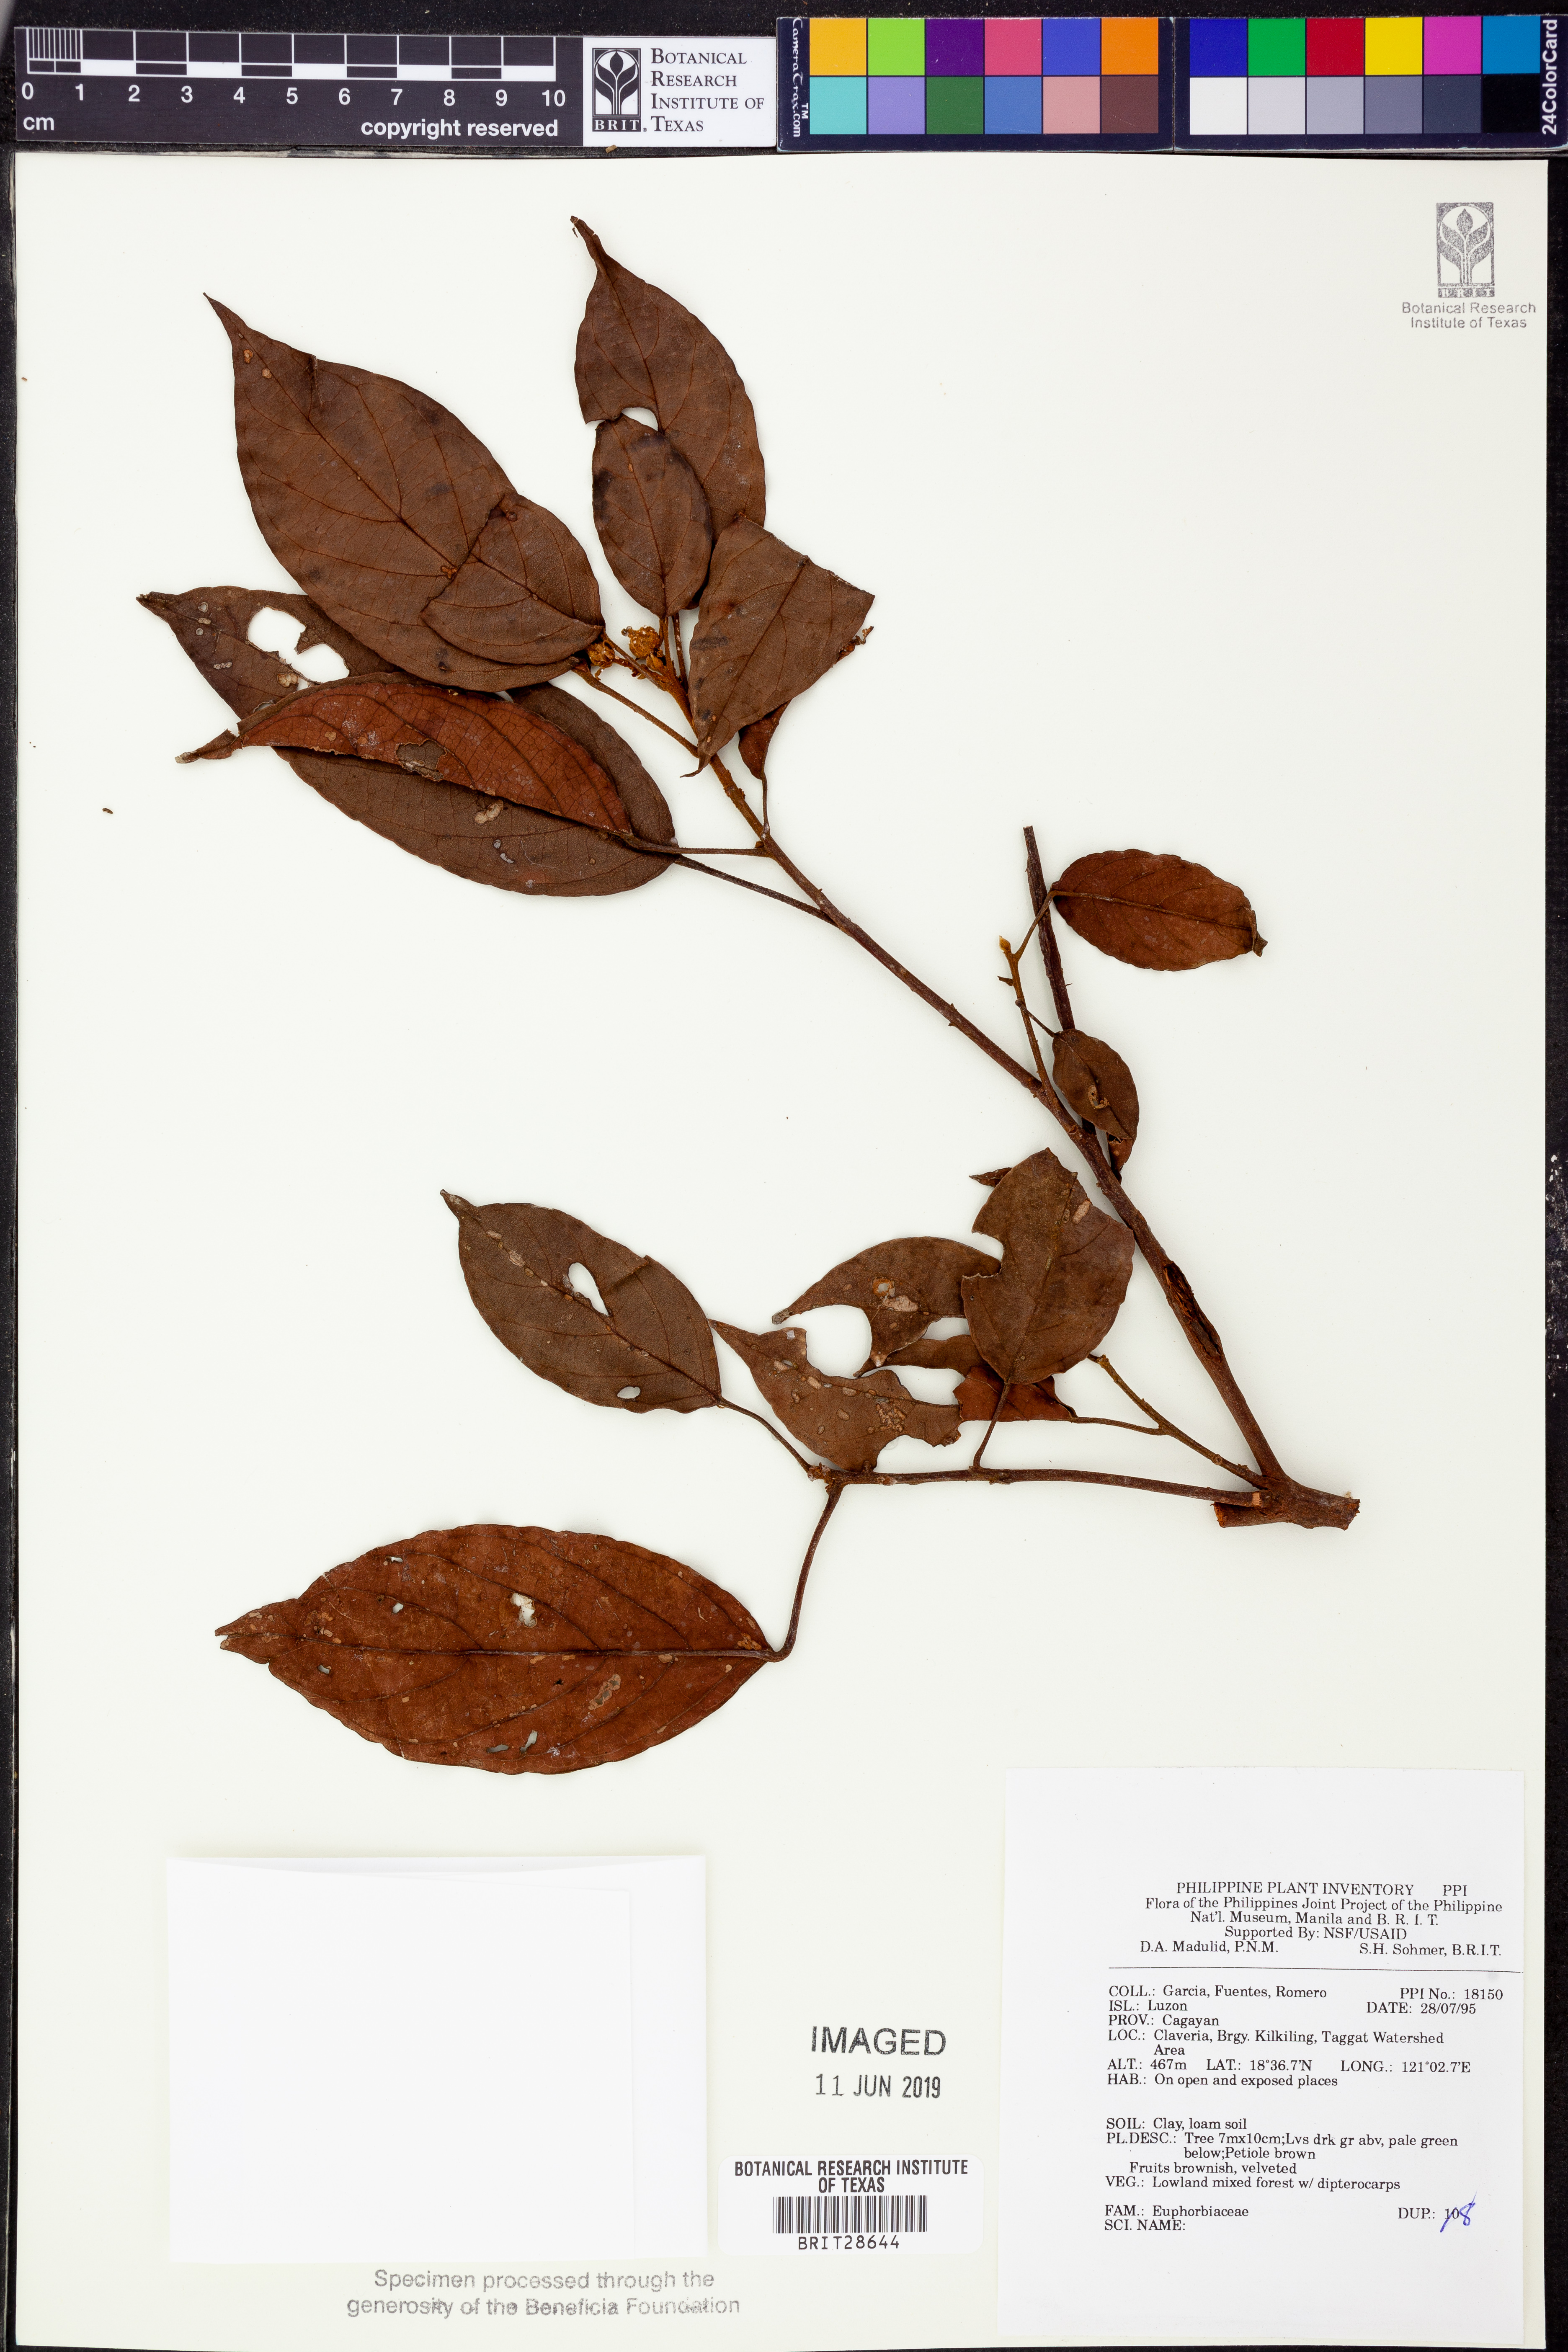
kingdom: Plantae
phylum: Tracheophyta
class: Magnoliopsida
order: Malpighiales
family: Euphorbiaceae
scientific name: Euphorbiaceae
